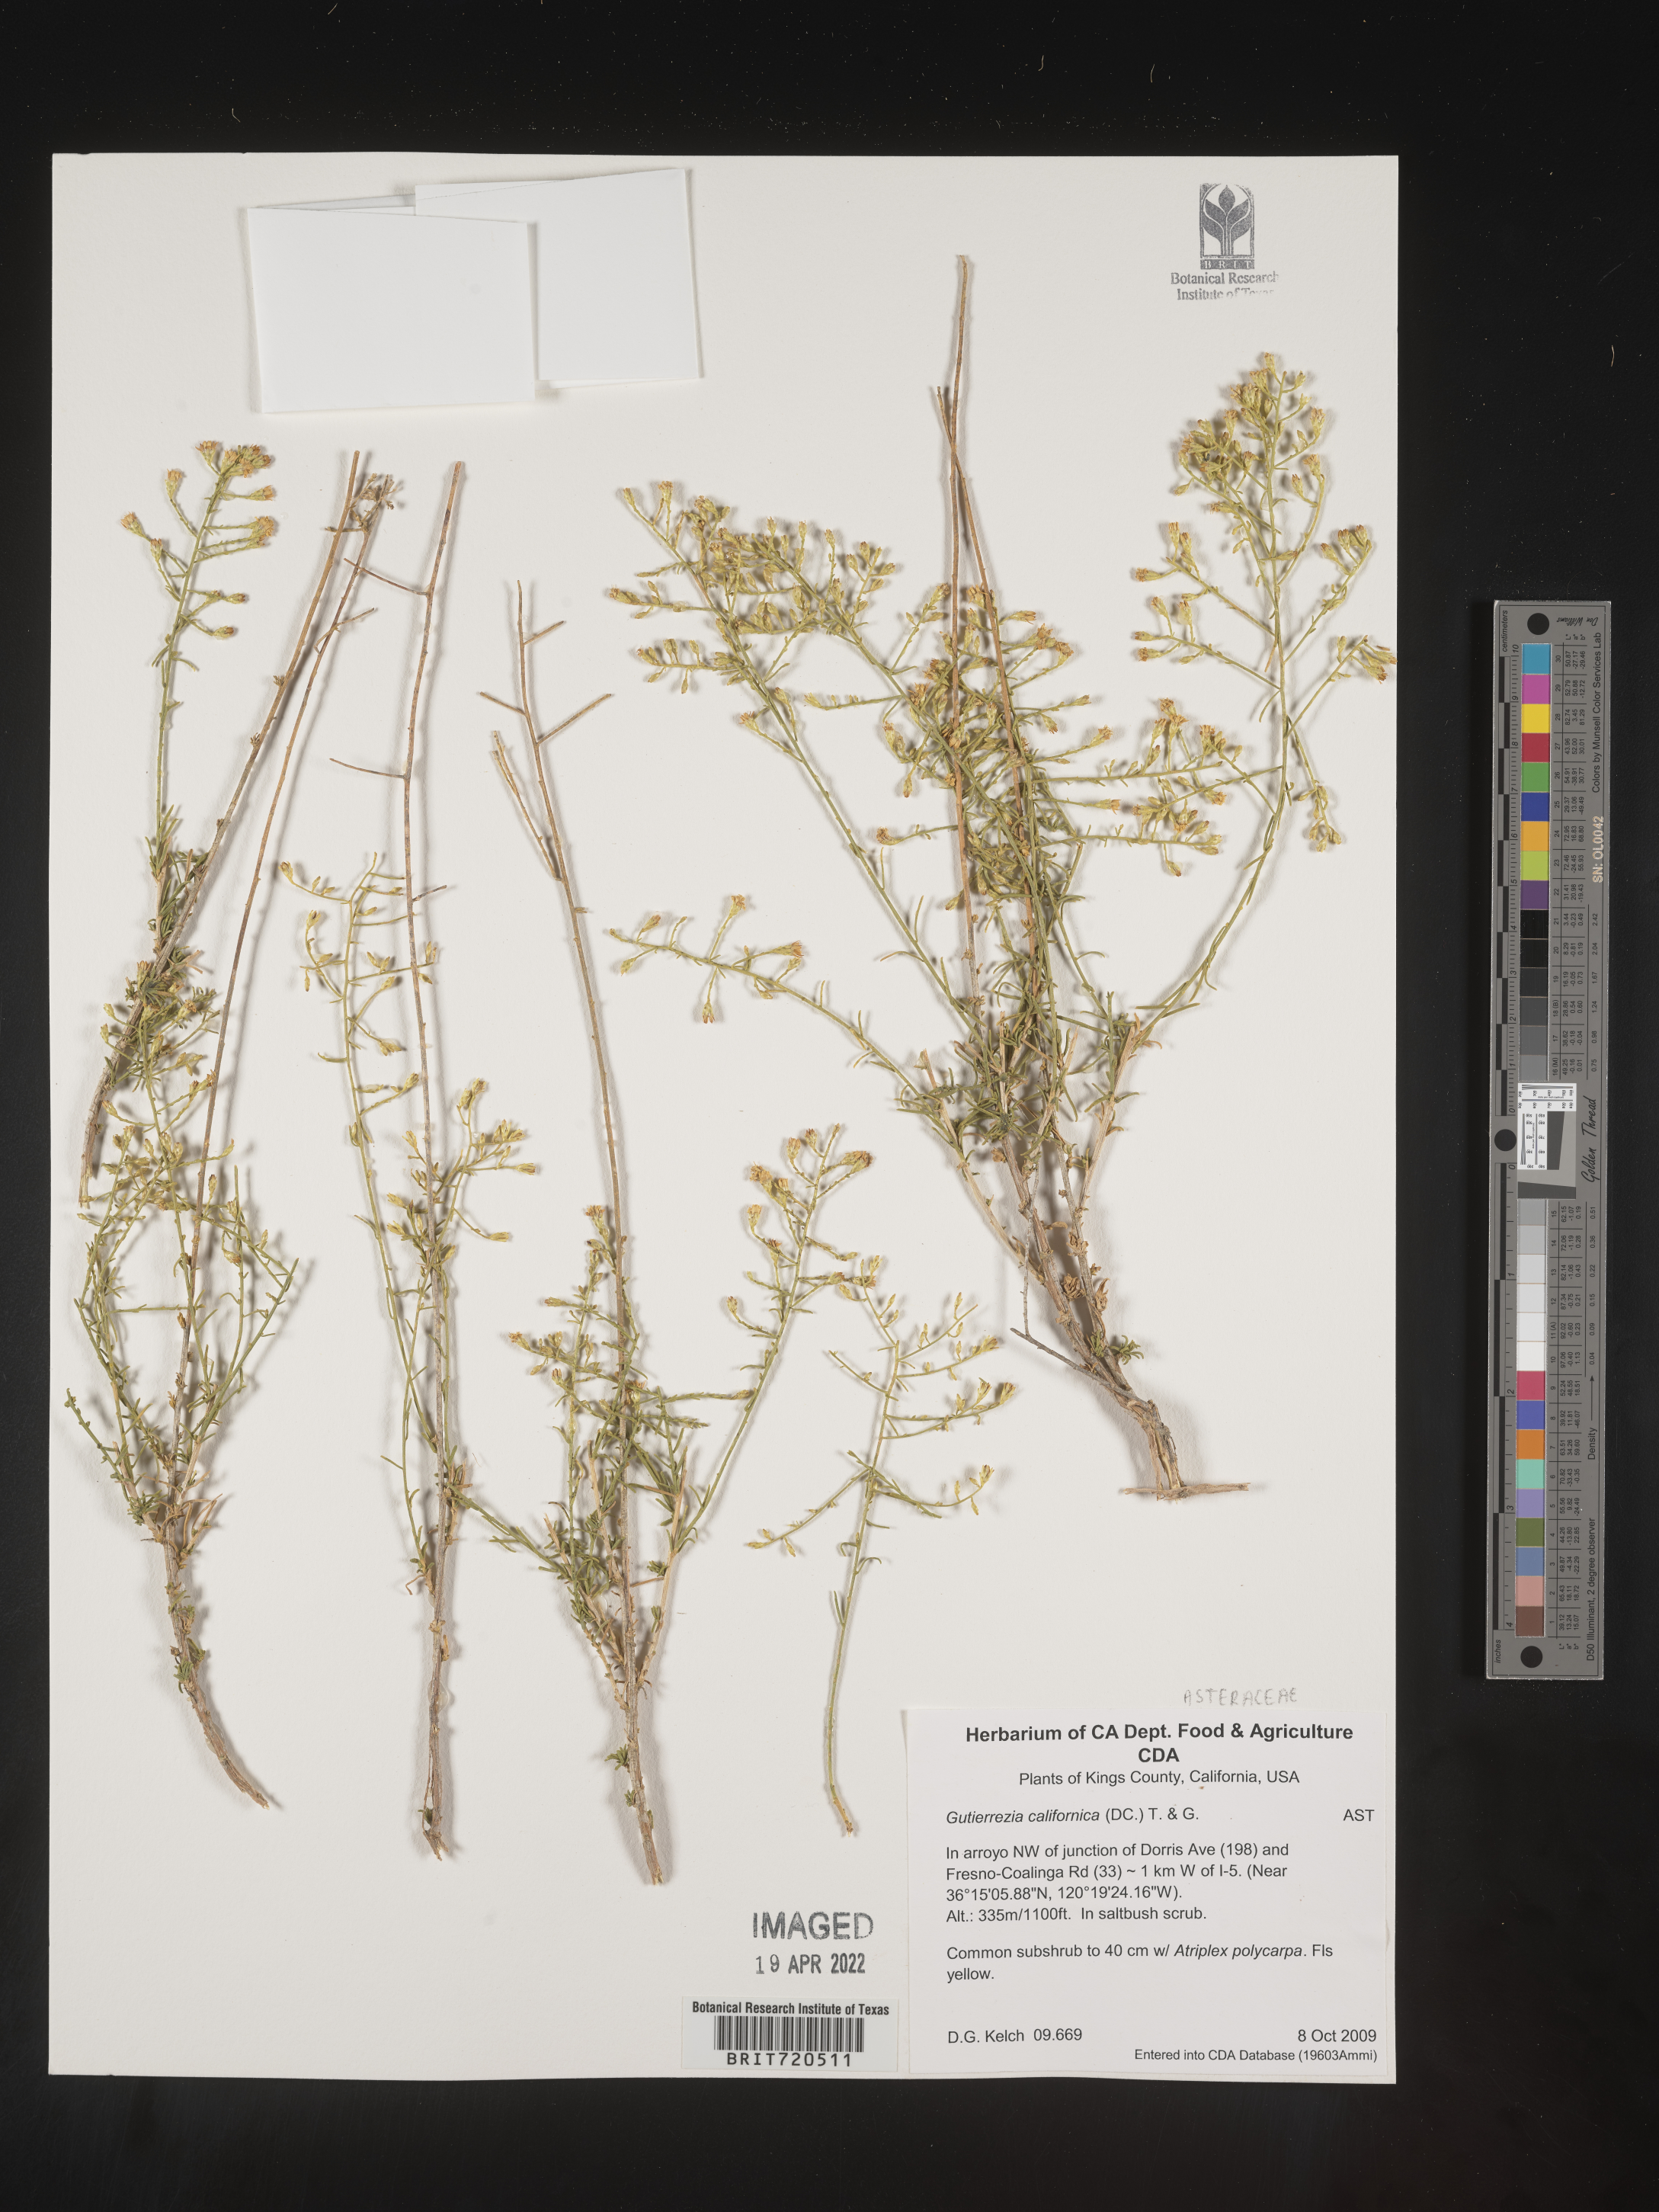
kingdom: Plantae
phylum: Tracheophyta
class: Magnoliopsida
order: Asterales
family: Asteraceae
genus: Gutierrezia
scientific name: Gutierrezia
